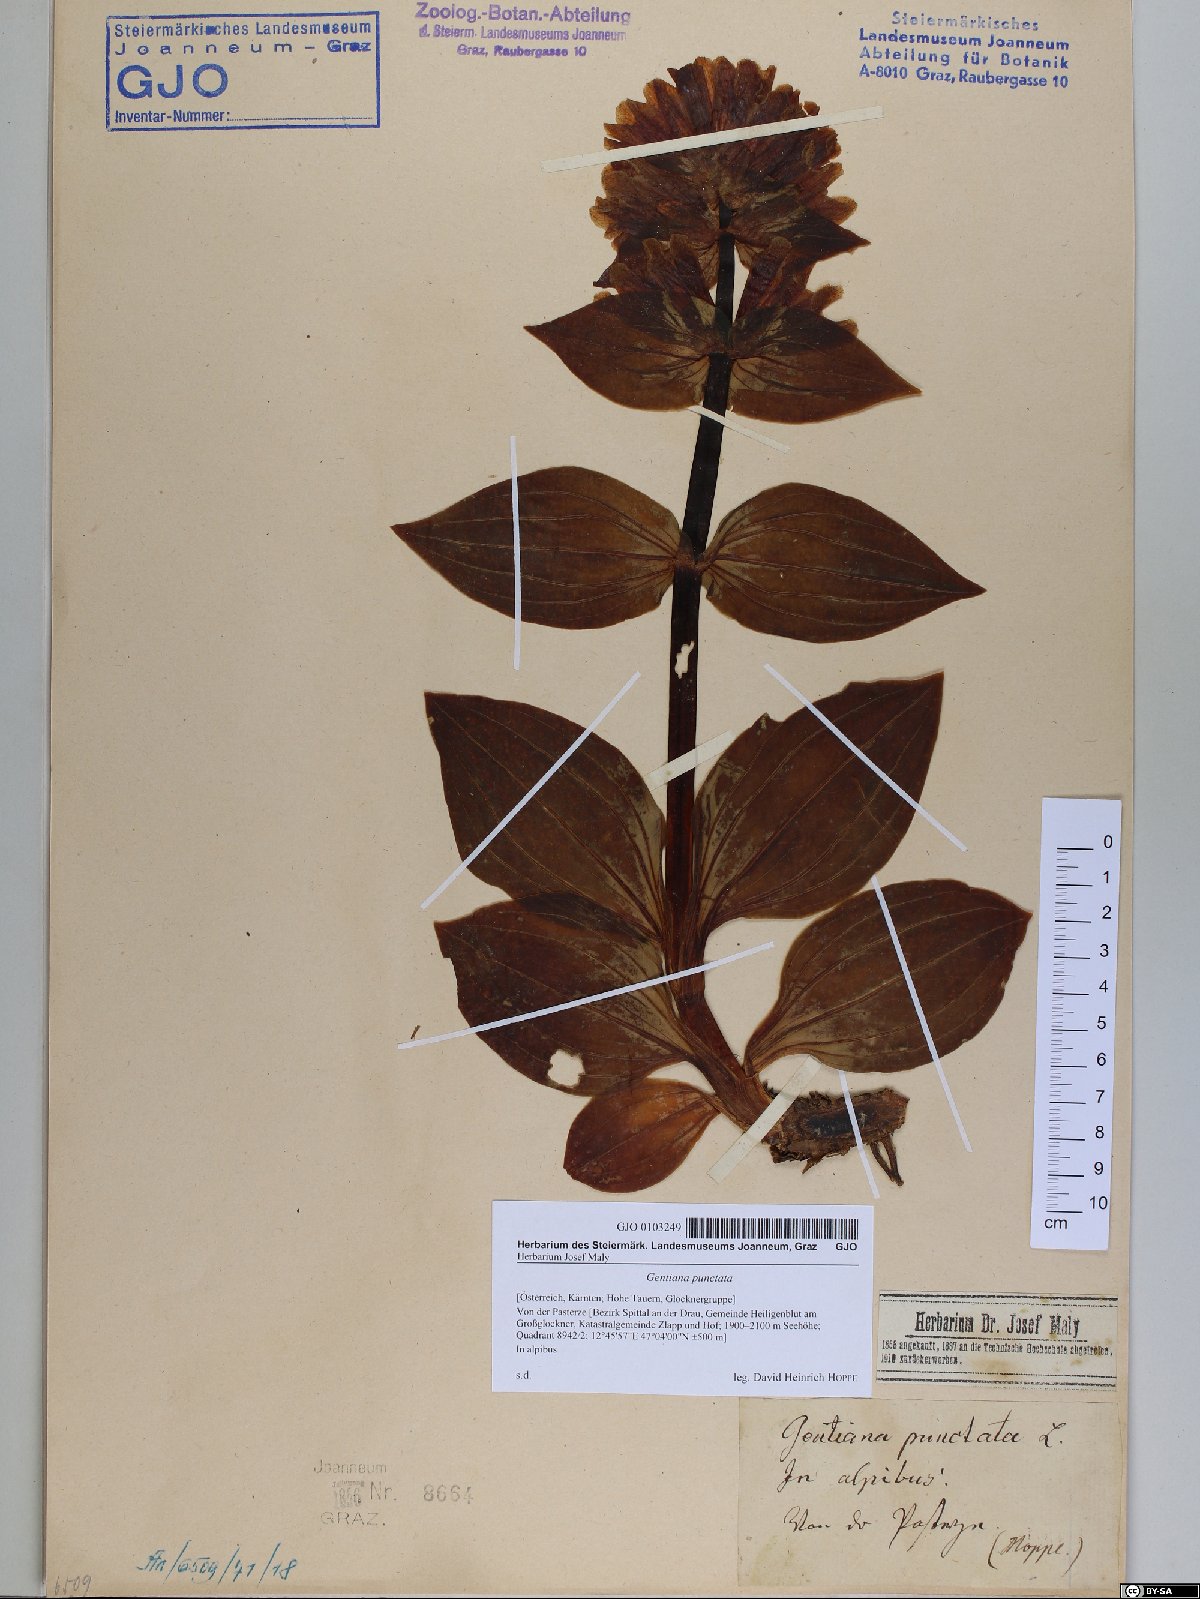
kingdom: Plantae
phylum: Tracheophyta
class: Magnoliopsida
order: Gentianales
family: Gentianaceae
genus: Gentiana
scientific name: Gentiana punctata
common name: Spotted gentian
